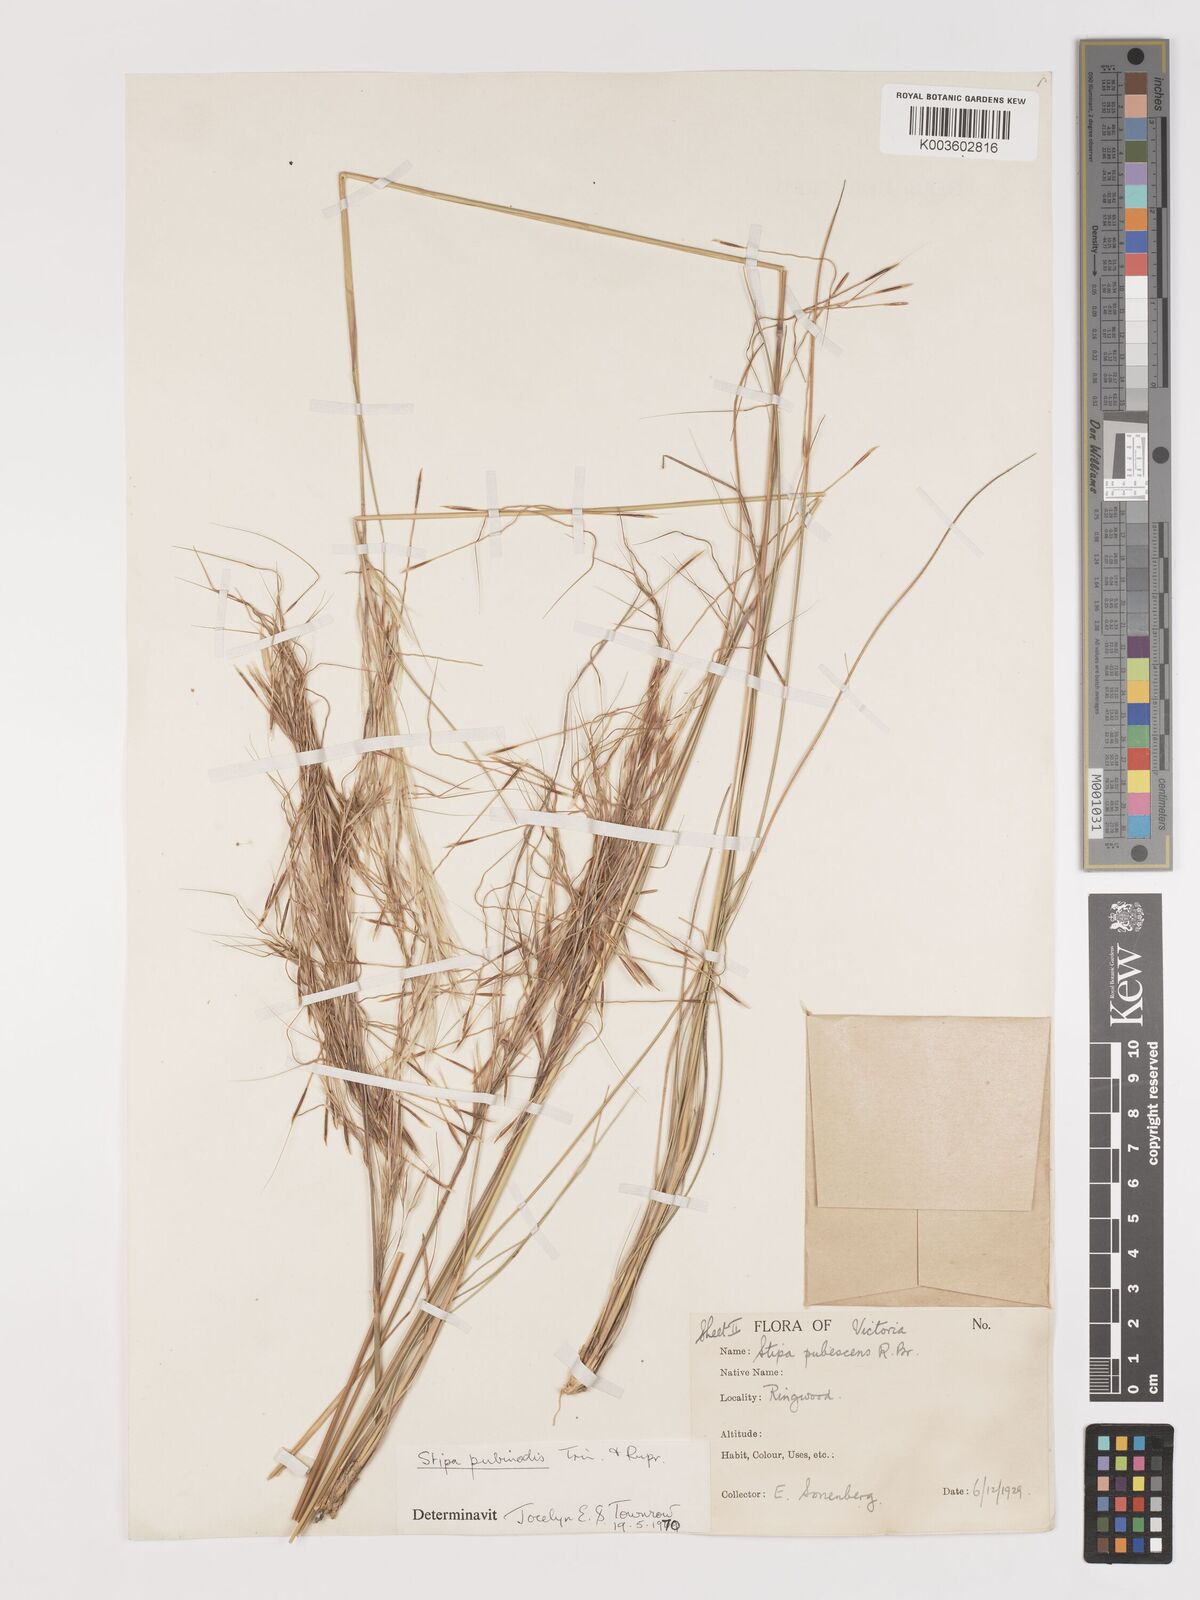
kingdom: Plantae
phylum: Tracheophyta
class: Liliopsida
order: Poales
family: Poaceae
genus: Austrostipa
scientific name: Austrostipa pubescens
